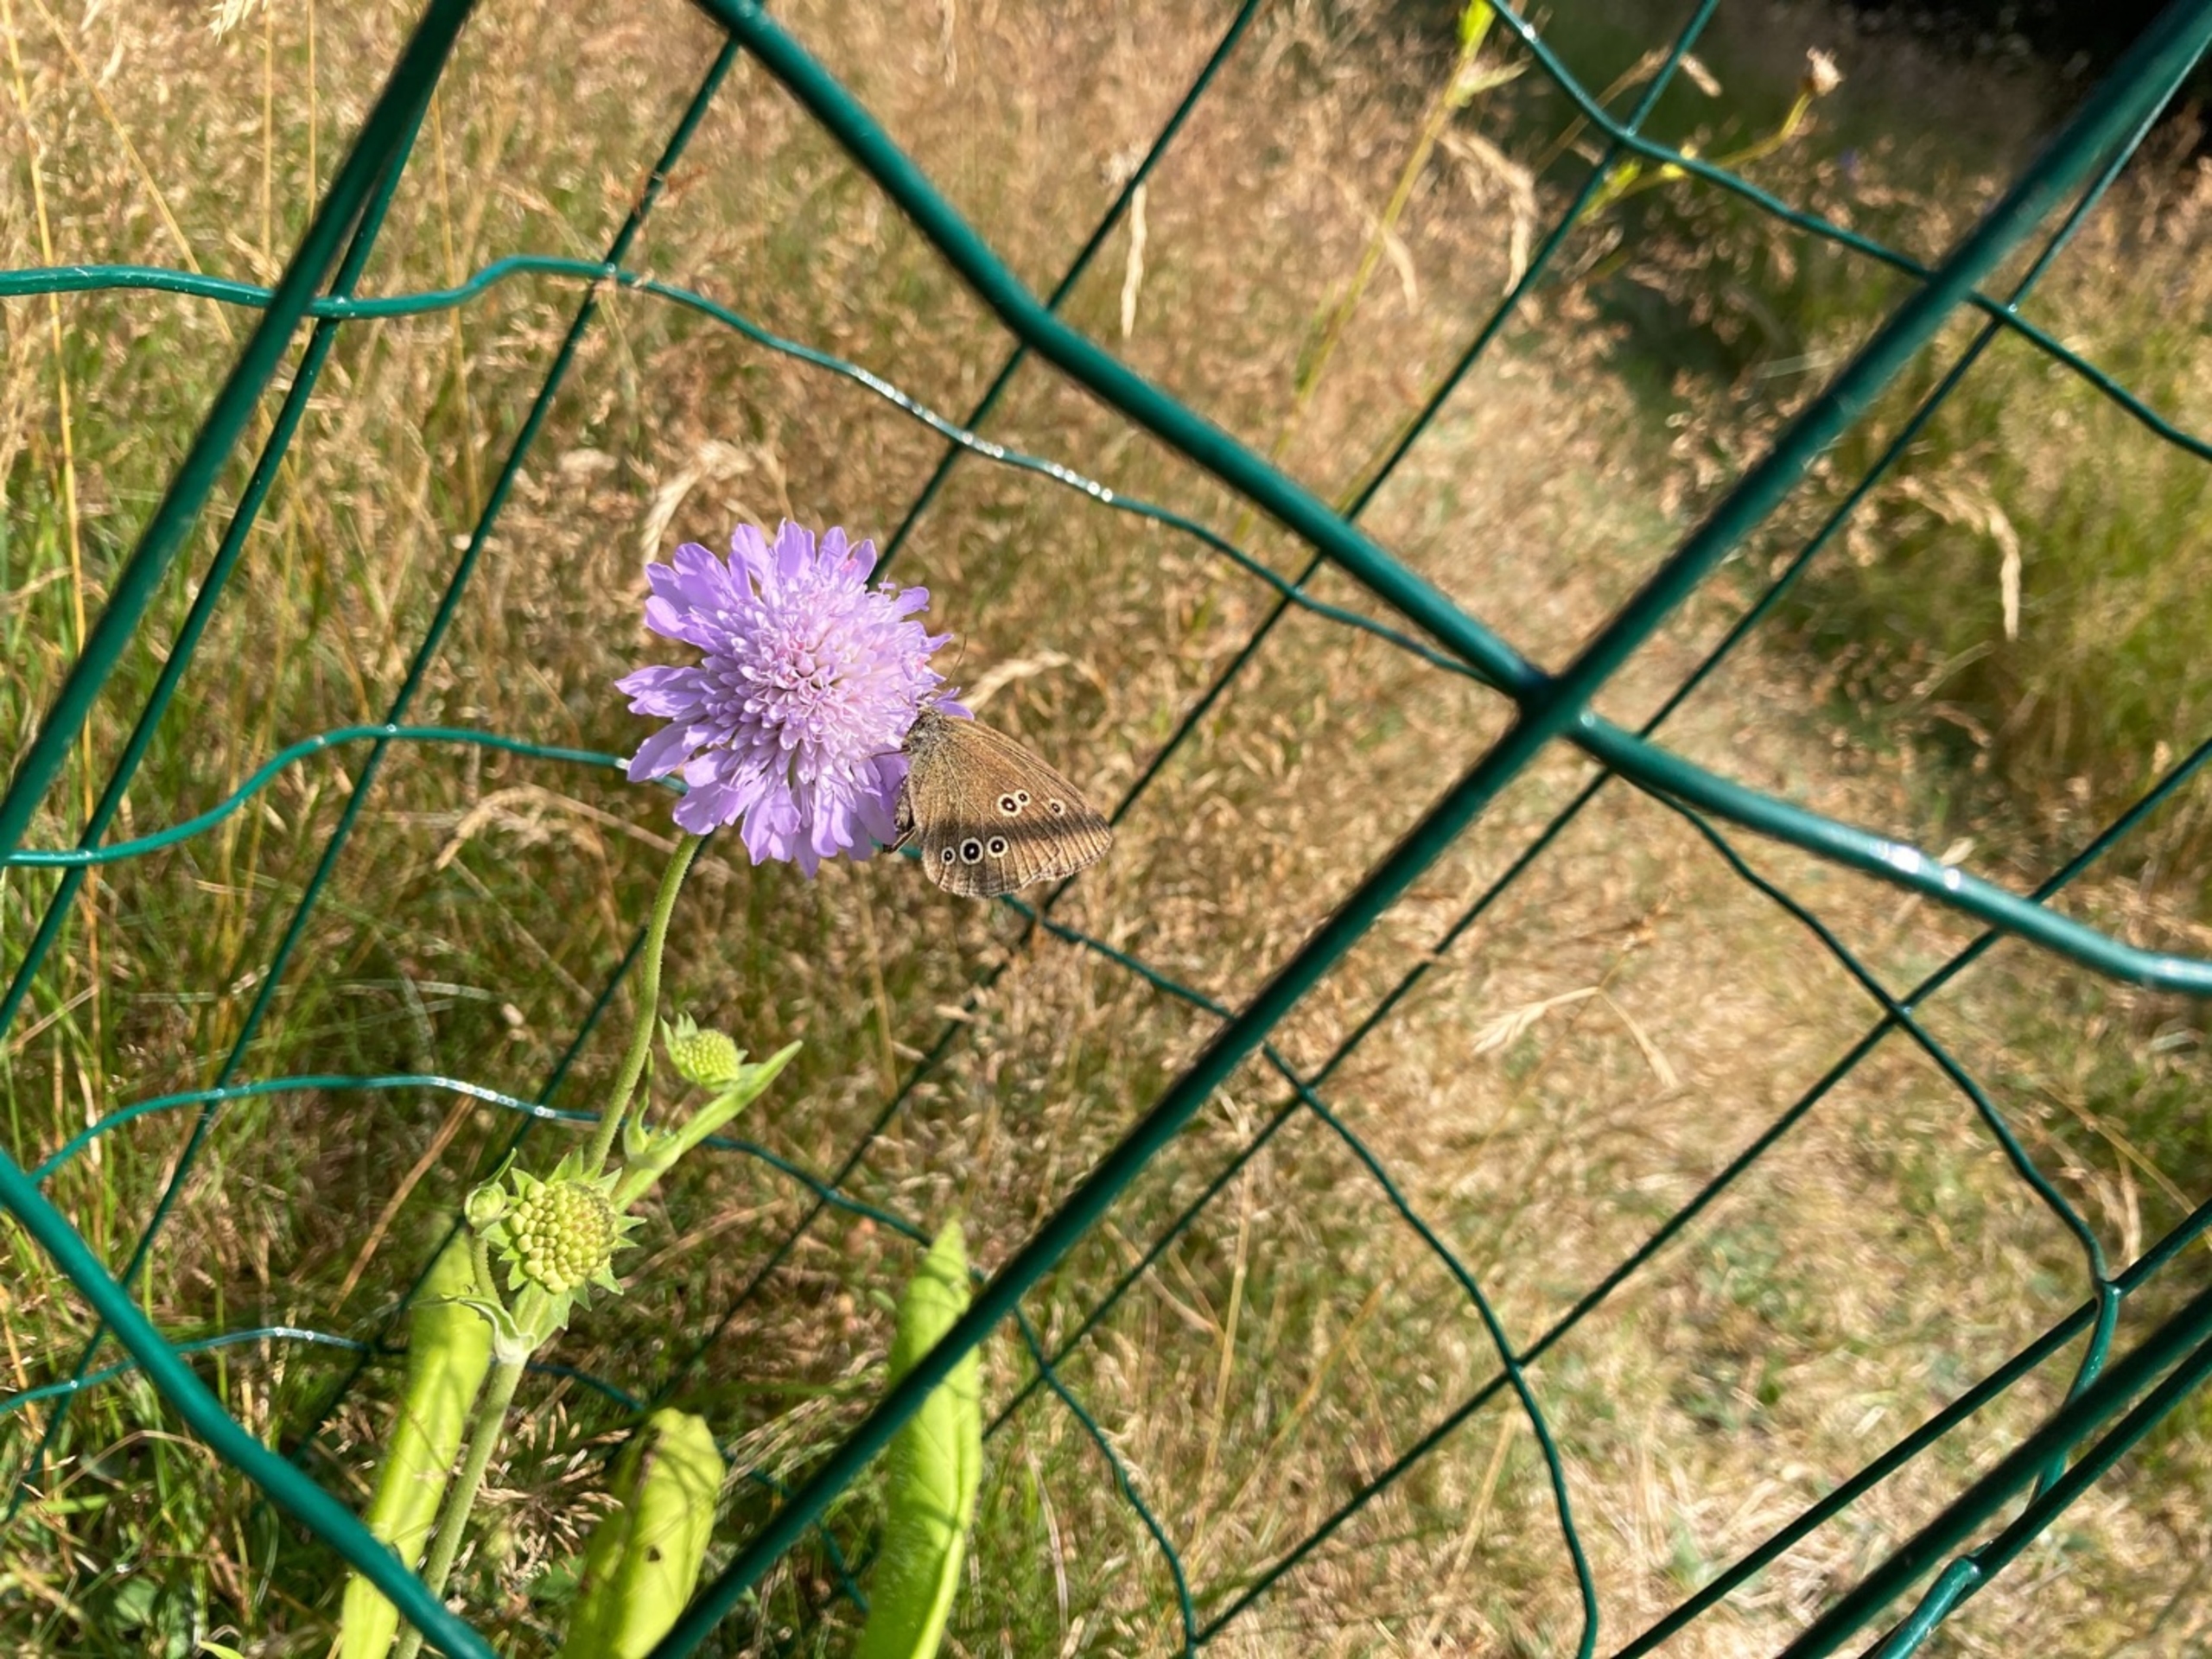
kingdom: Animalia
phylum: Arthropoda
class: Insecta
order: Lepidoptera
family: Nymphalidae
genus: Aphantopus
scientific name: Aphantopus hyperantus
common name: Engrandøje
